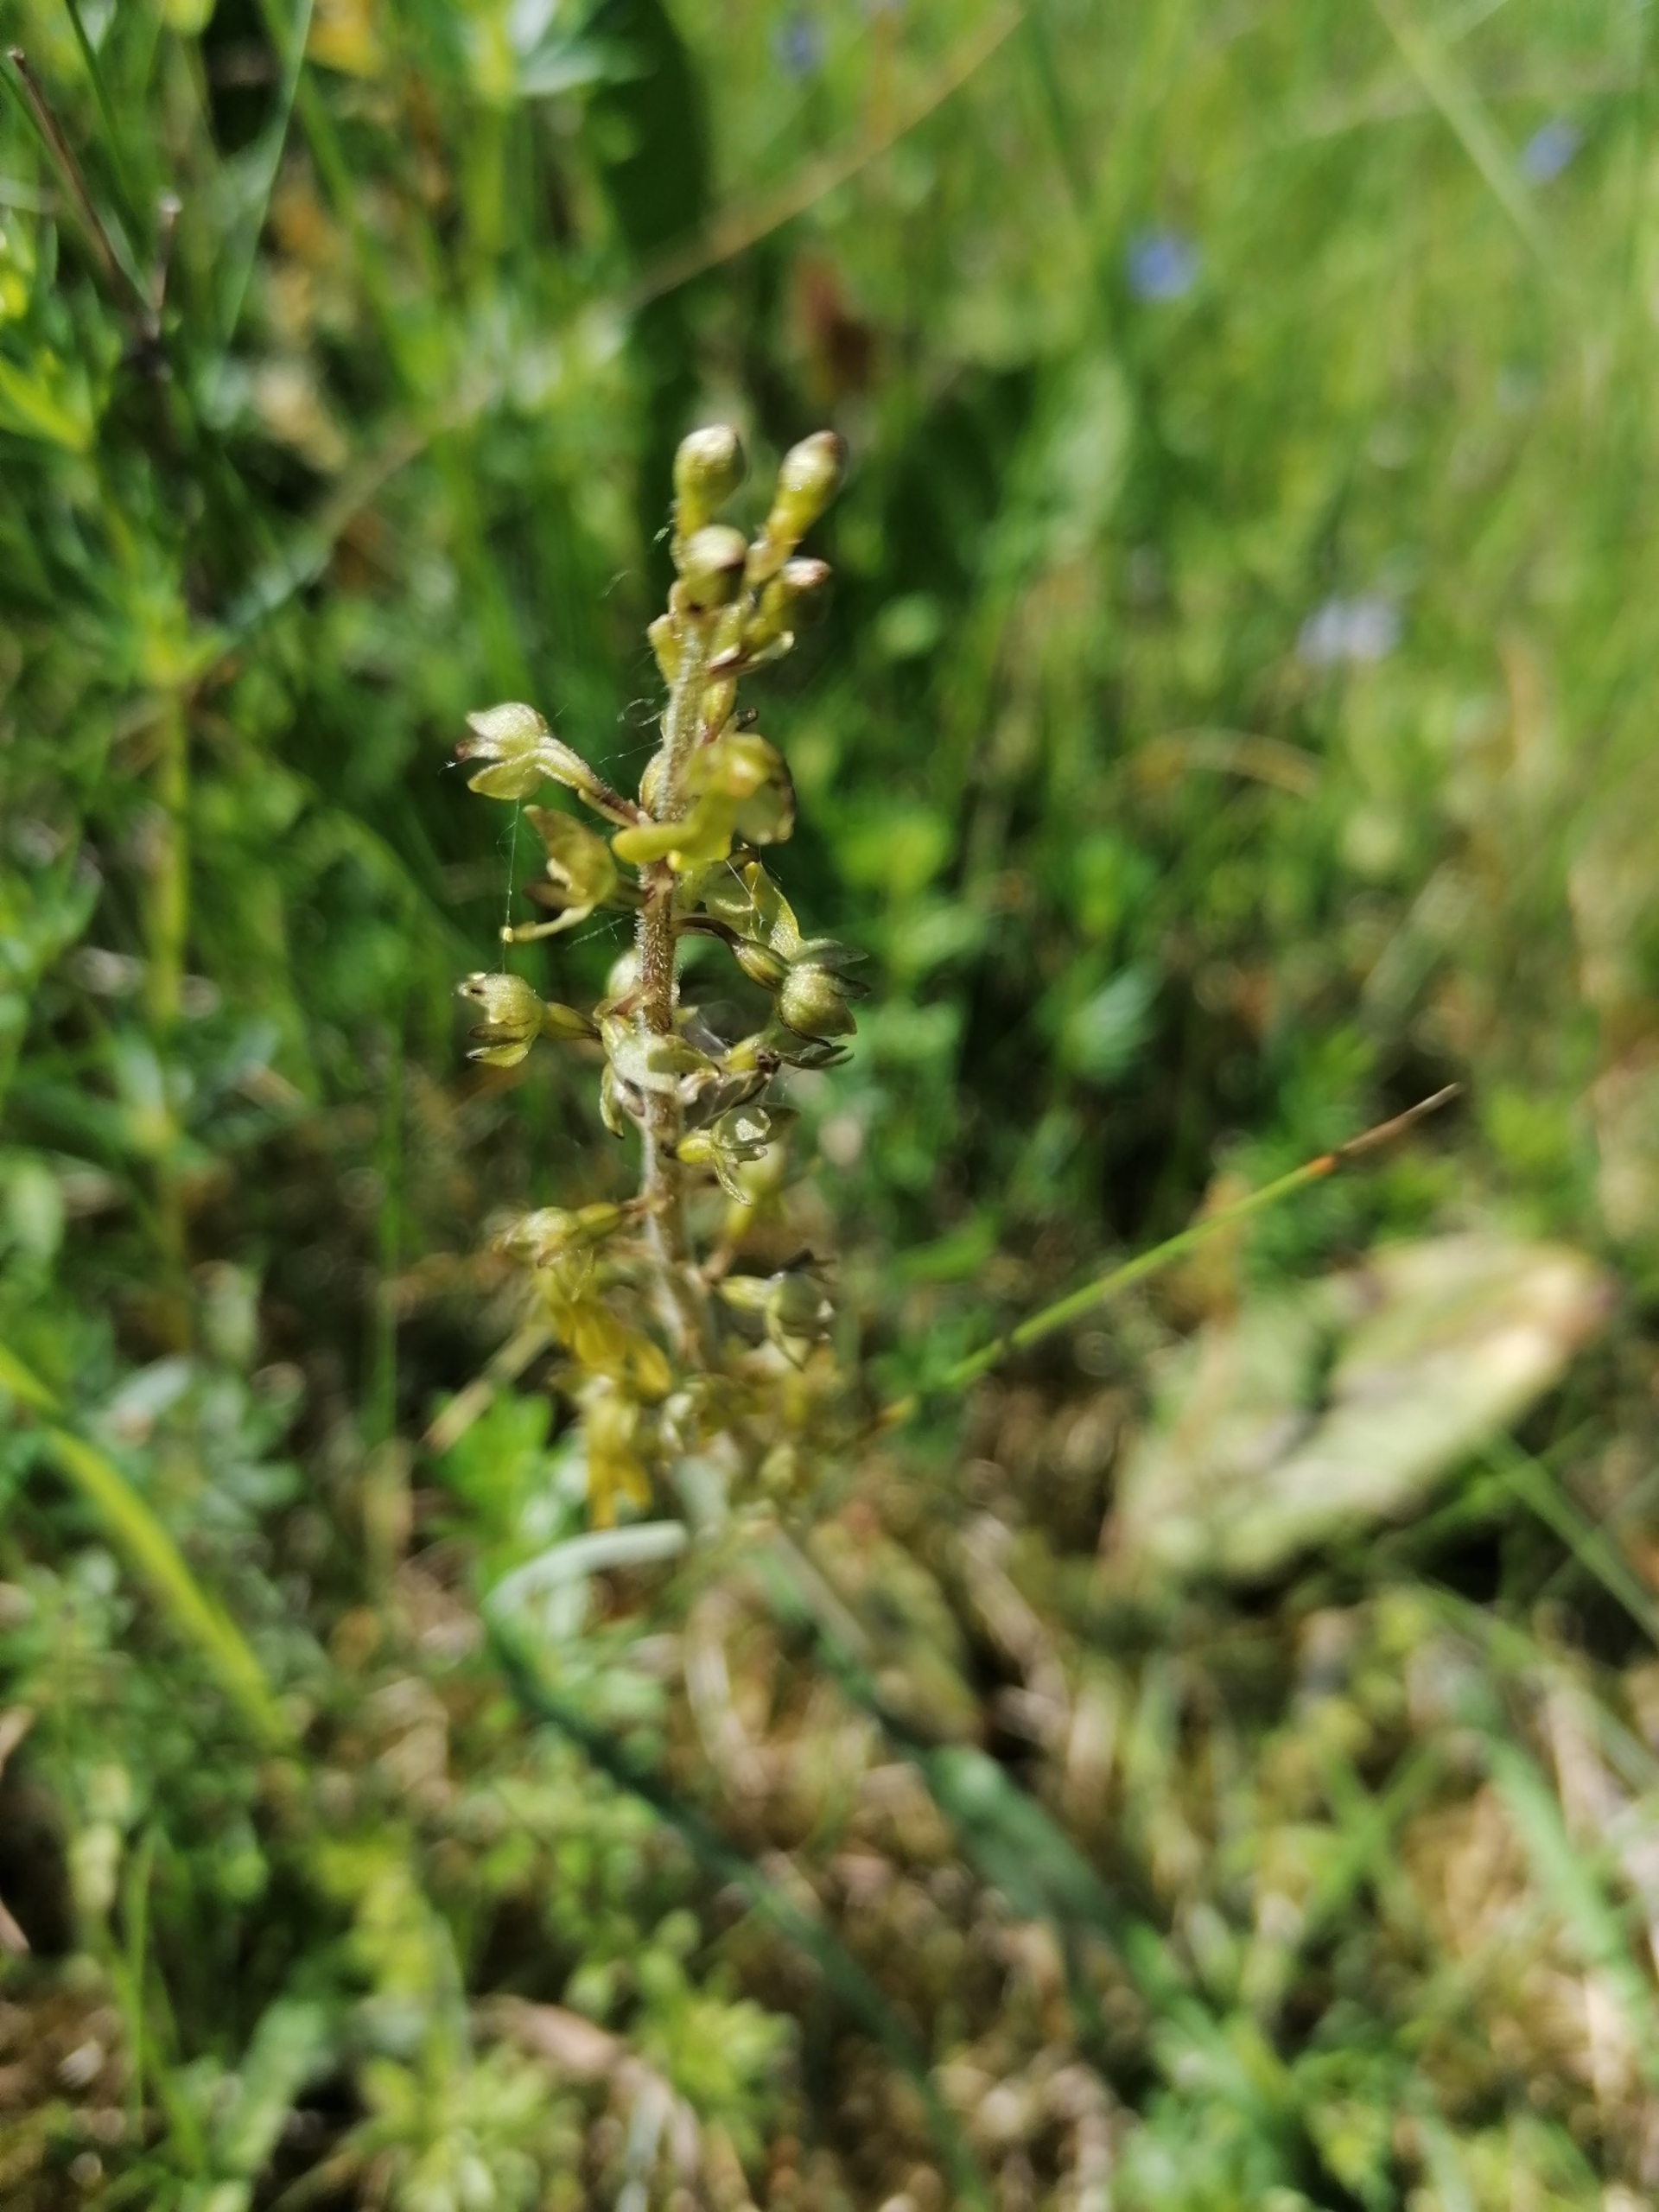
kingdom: Plantae
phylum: Tracheophyta
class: Liliopsida
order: Asparagales
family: Orchidaceae
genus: Neottia
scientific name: Neottia ovata
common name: Ægbladet fliglæbe
